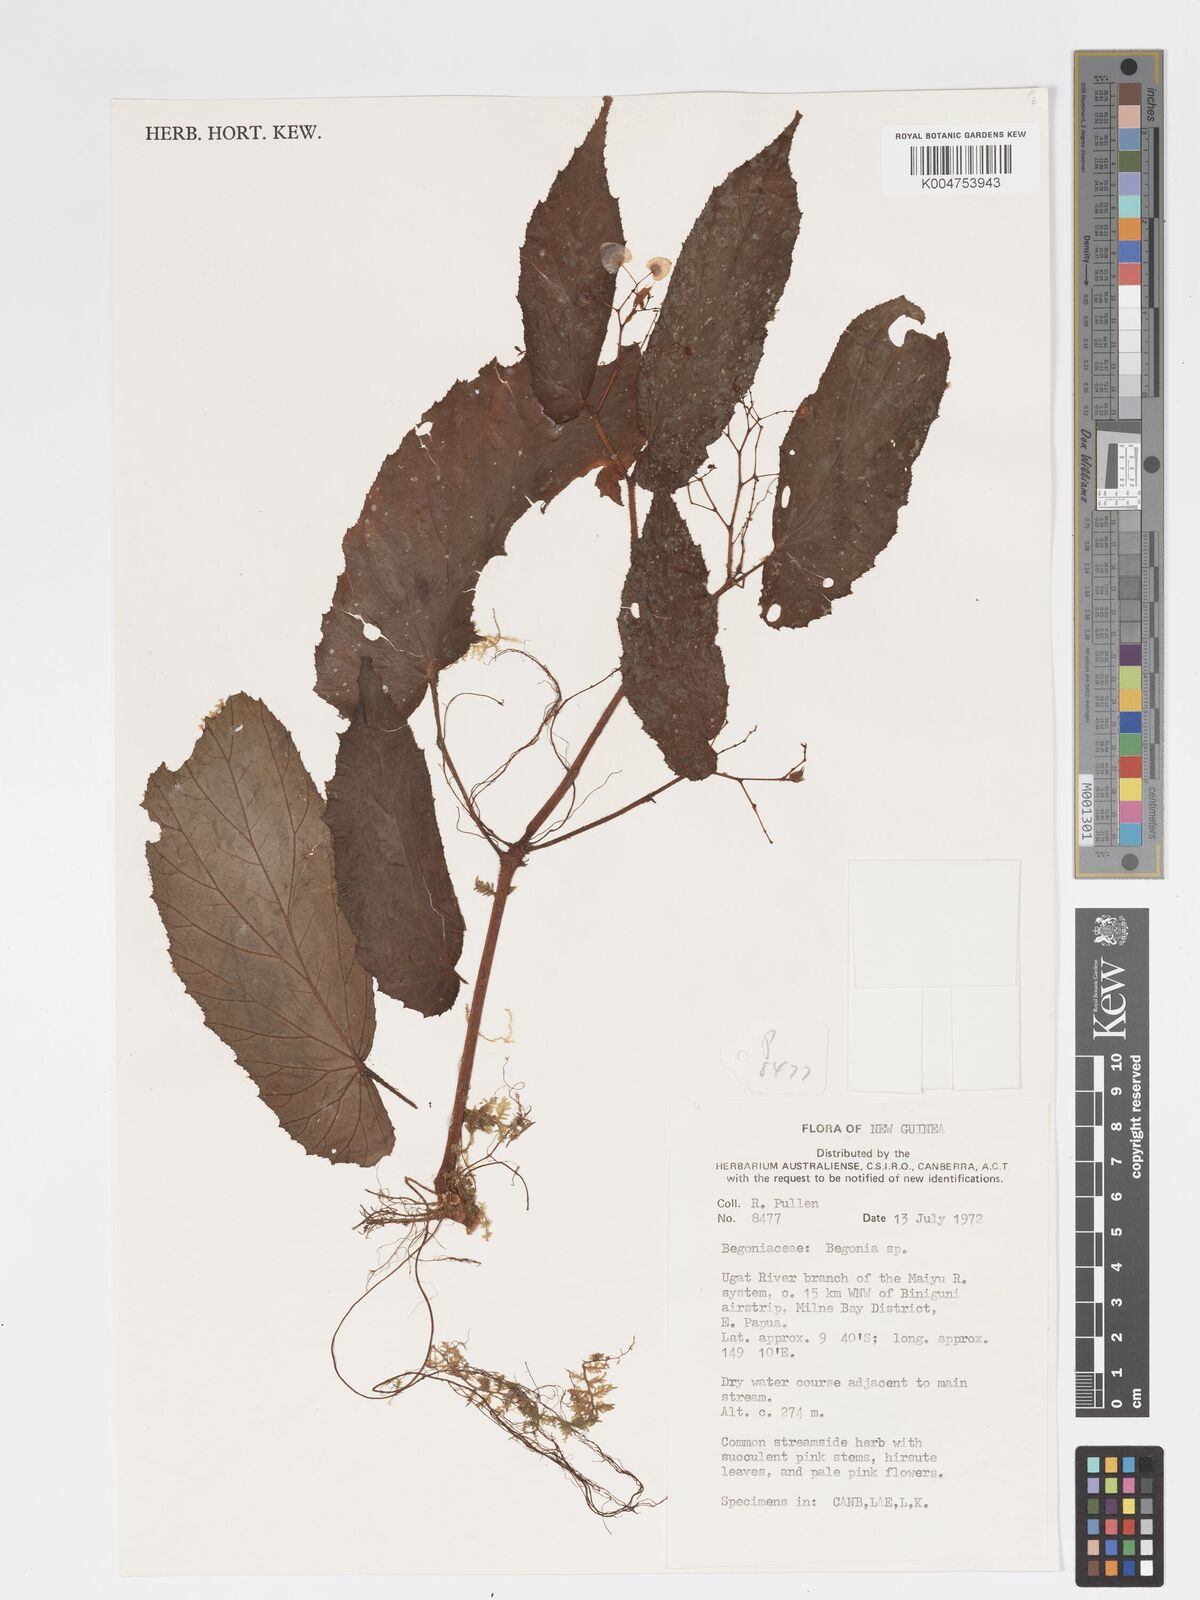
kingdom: Plantae
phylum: Tracheophyta
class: Magnoliopsida
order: Cucurbitales
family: Begoniaceae
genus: Begonia
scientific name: Begonia torricellensis
